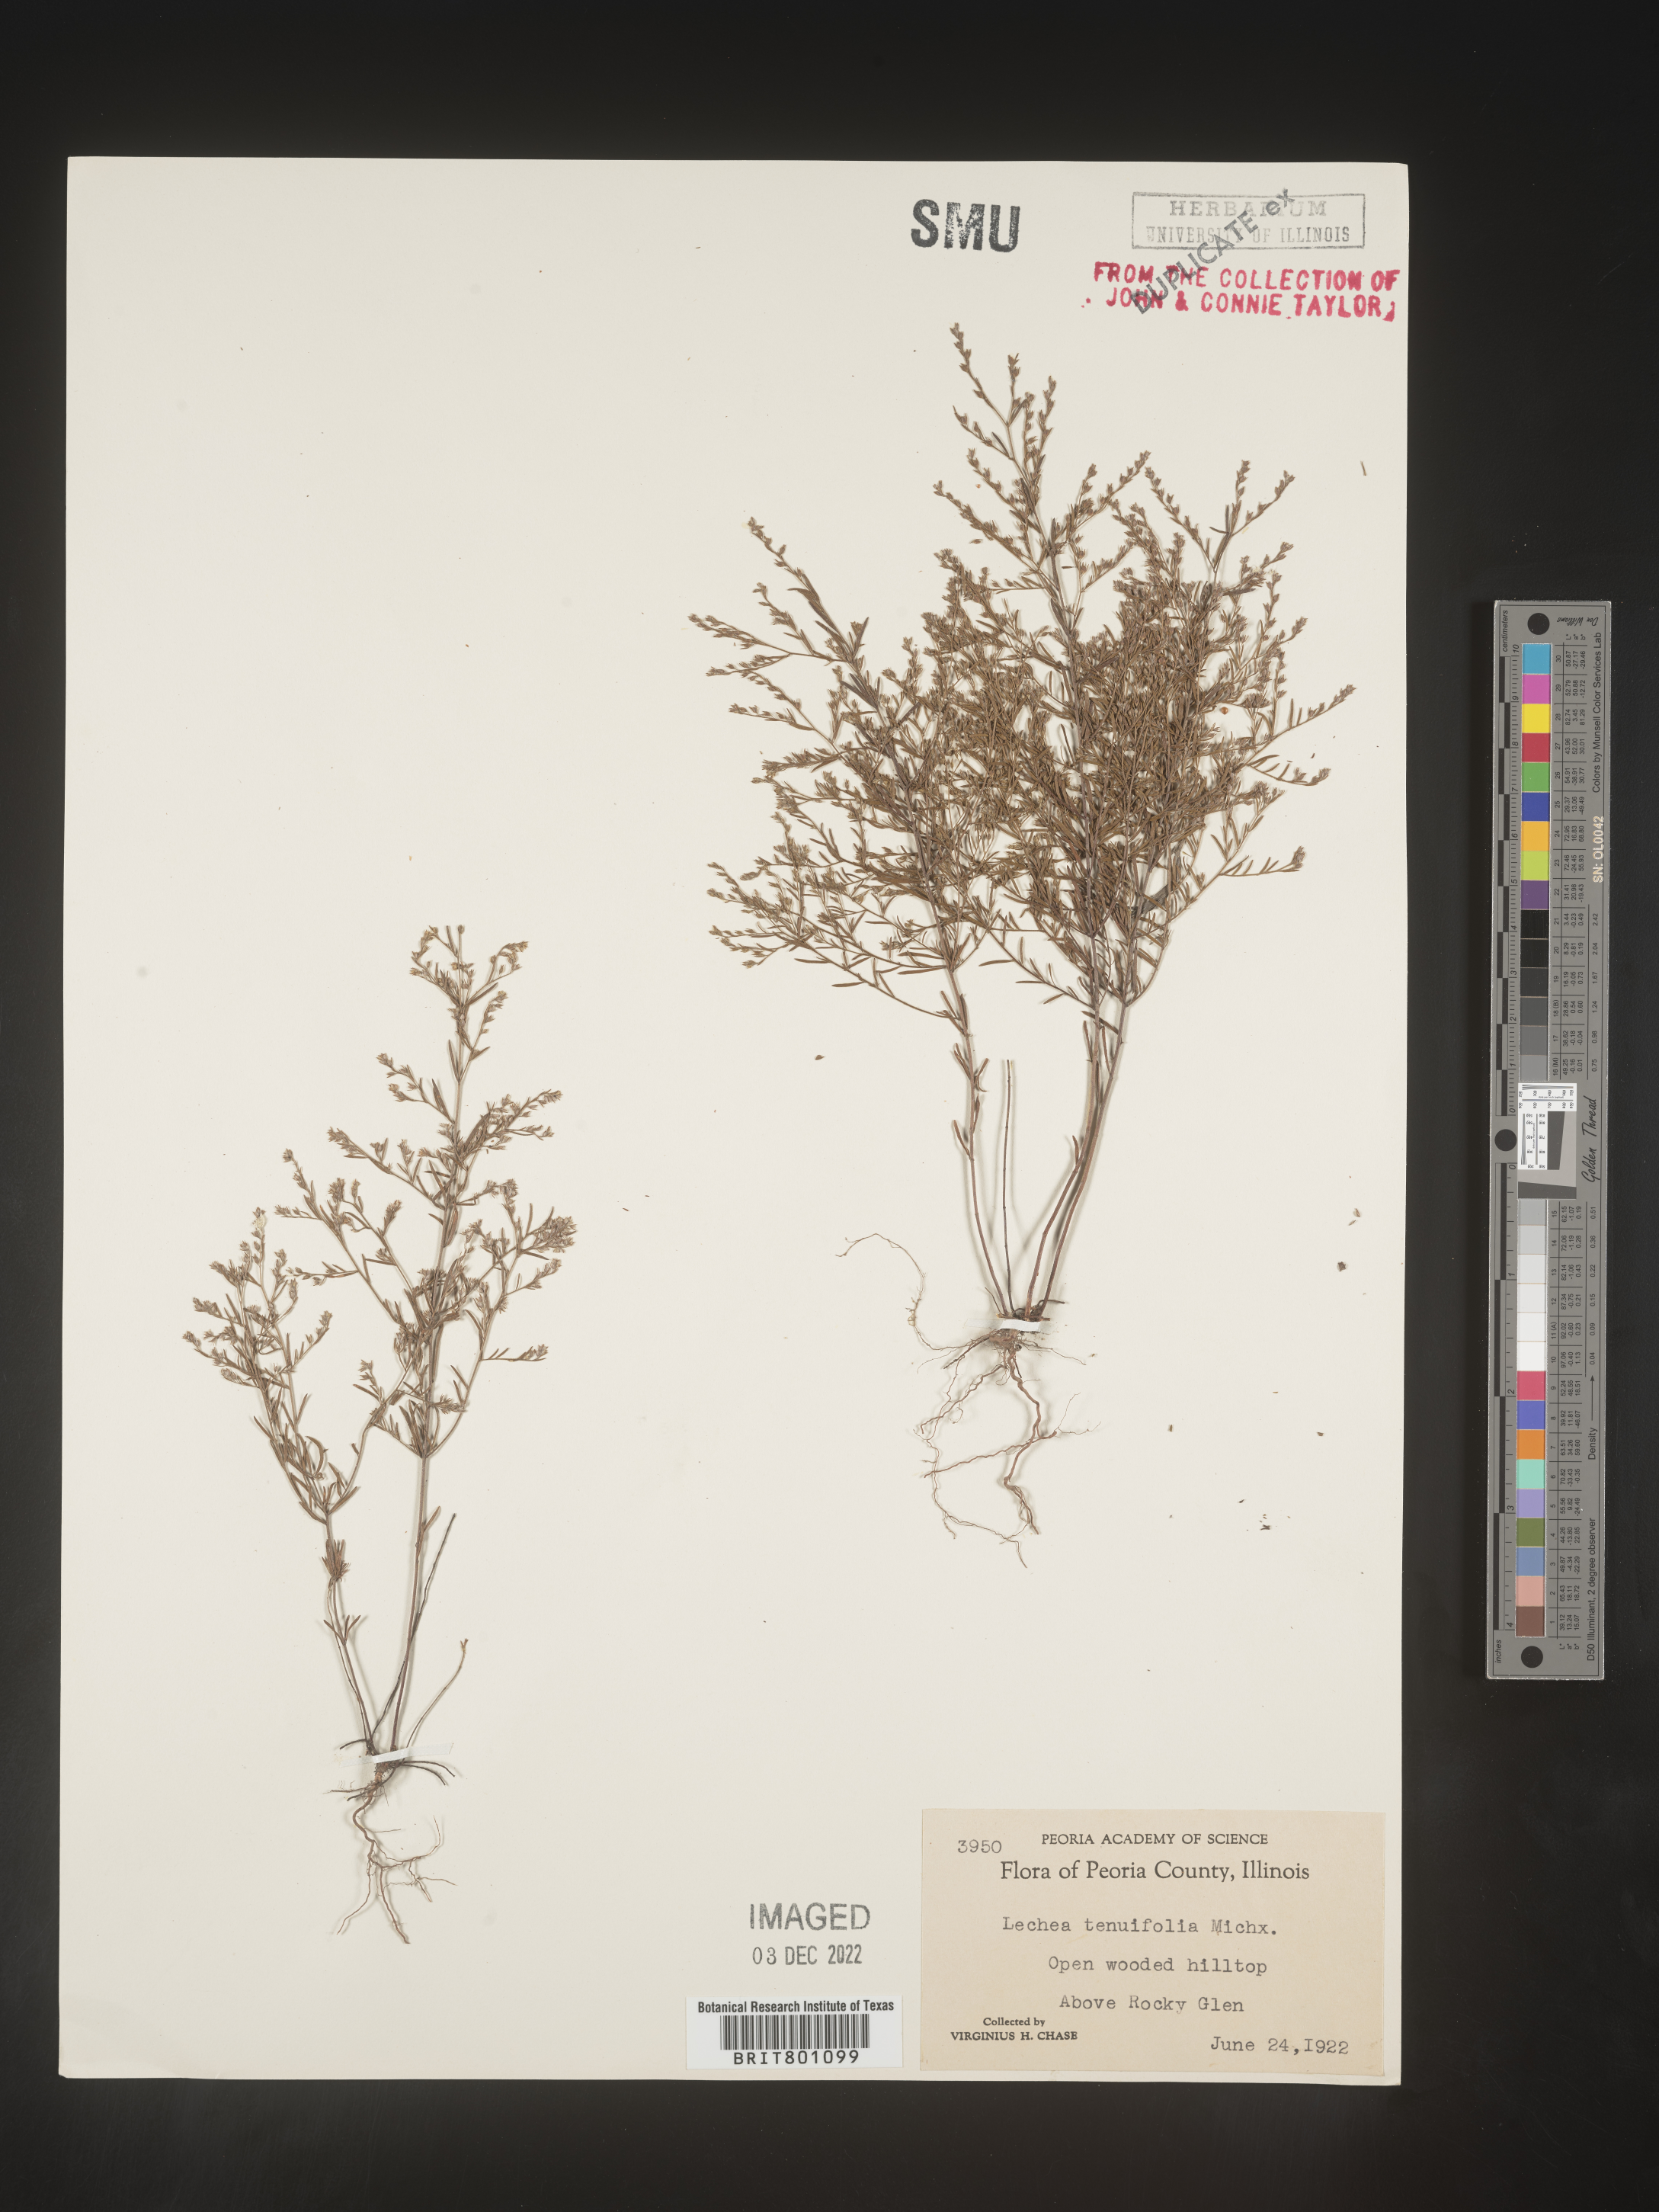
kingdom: Plantae
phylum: Tracheophyta
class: Magnoliopsida
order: Malvales
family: Cistaceae
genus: Lechea
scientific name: Lechea tenuifolia
